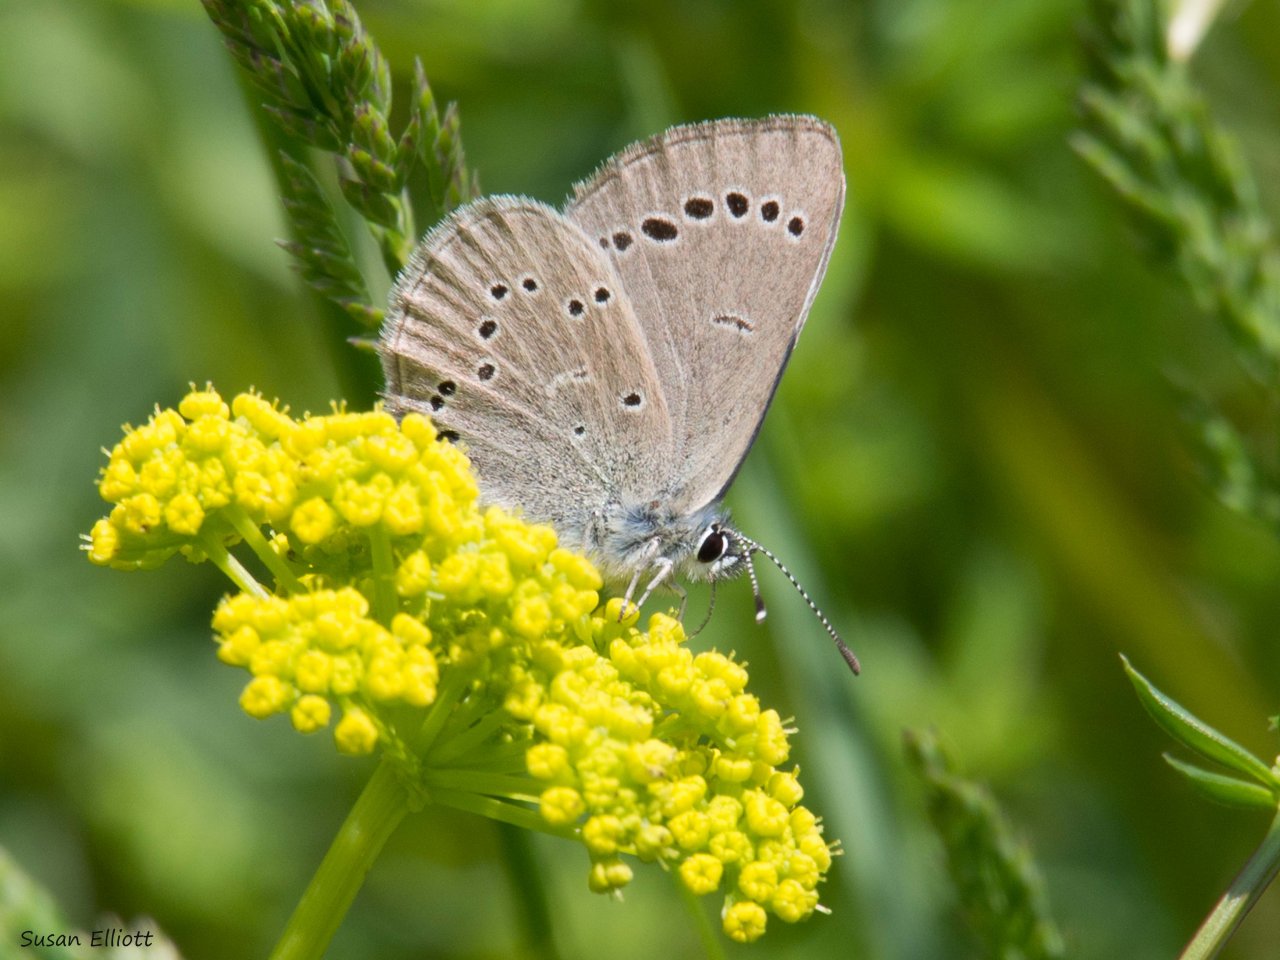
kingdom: Animalia
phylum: Arthropoda
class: Insecta
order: Lepidoptera
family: Lycaenidae
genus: Glaucopsyche
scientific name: Glaucopsyche lygdamus
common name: Silvery Blue
